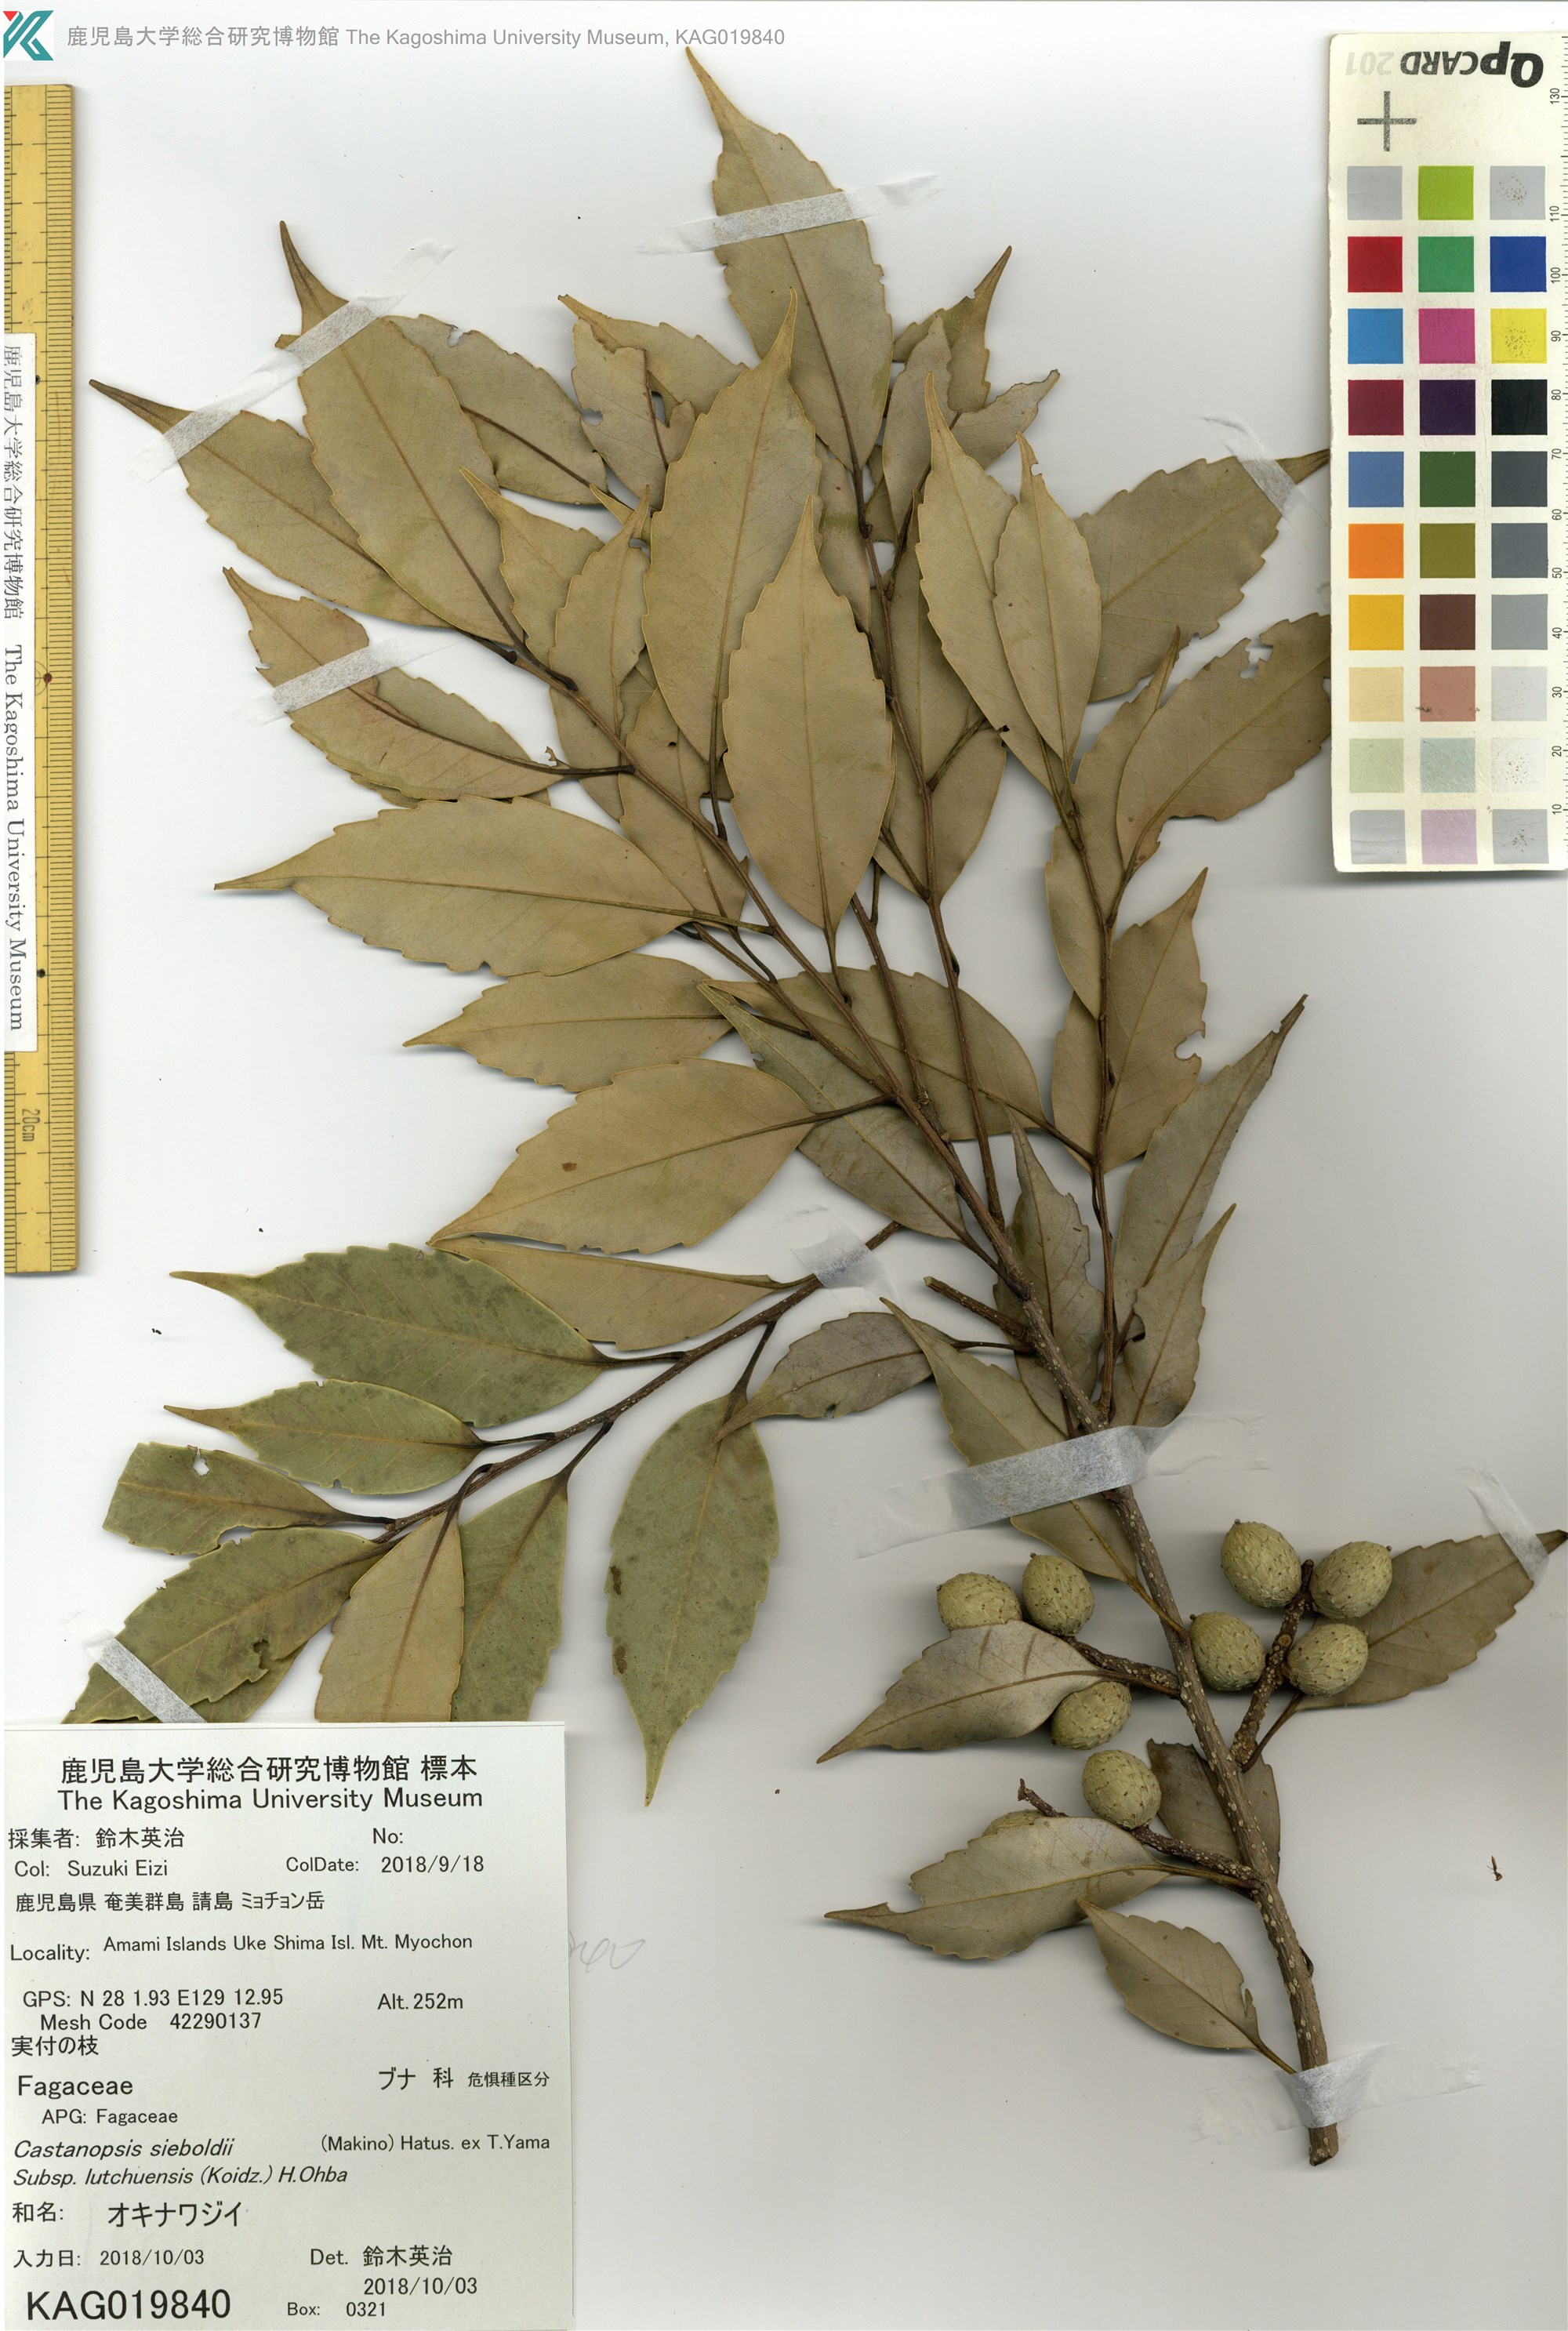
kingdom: Plantae
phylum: Tracheophyta
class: Magnoliopsida
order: Fagales
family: Fagaceae
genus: Castanopsis
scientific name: Castanopsis sieboldii
